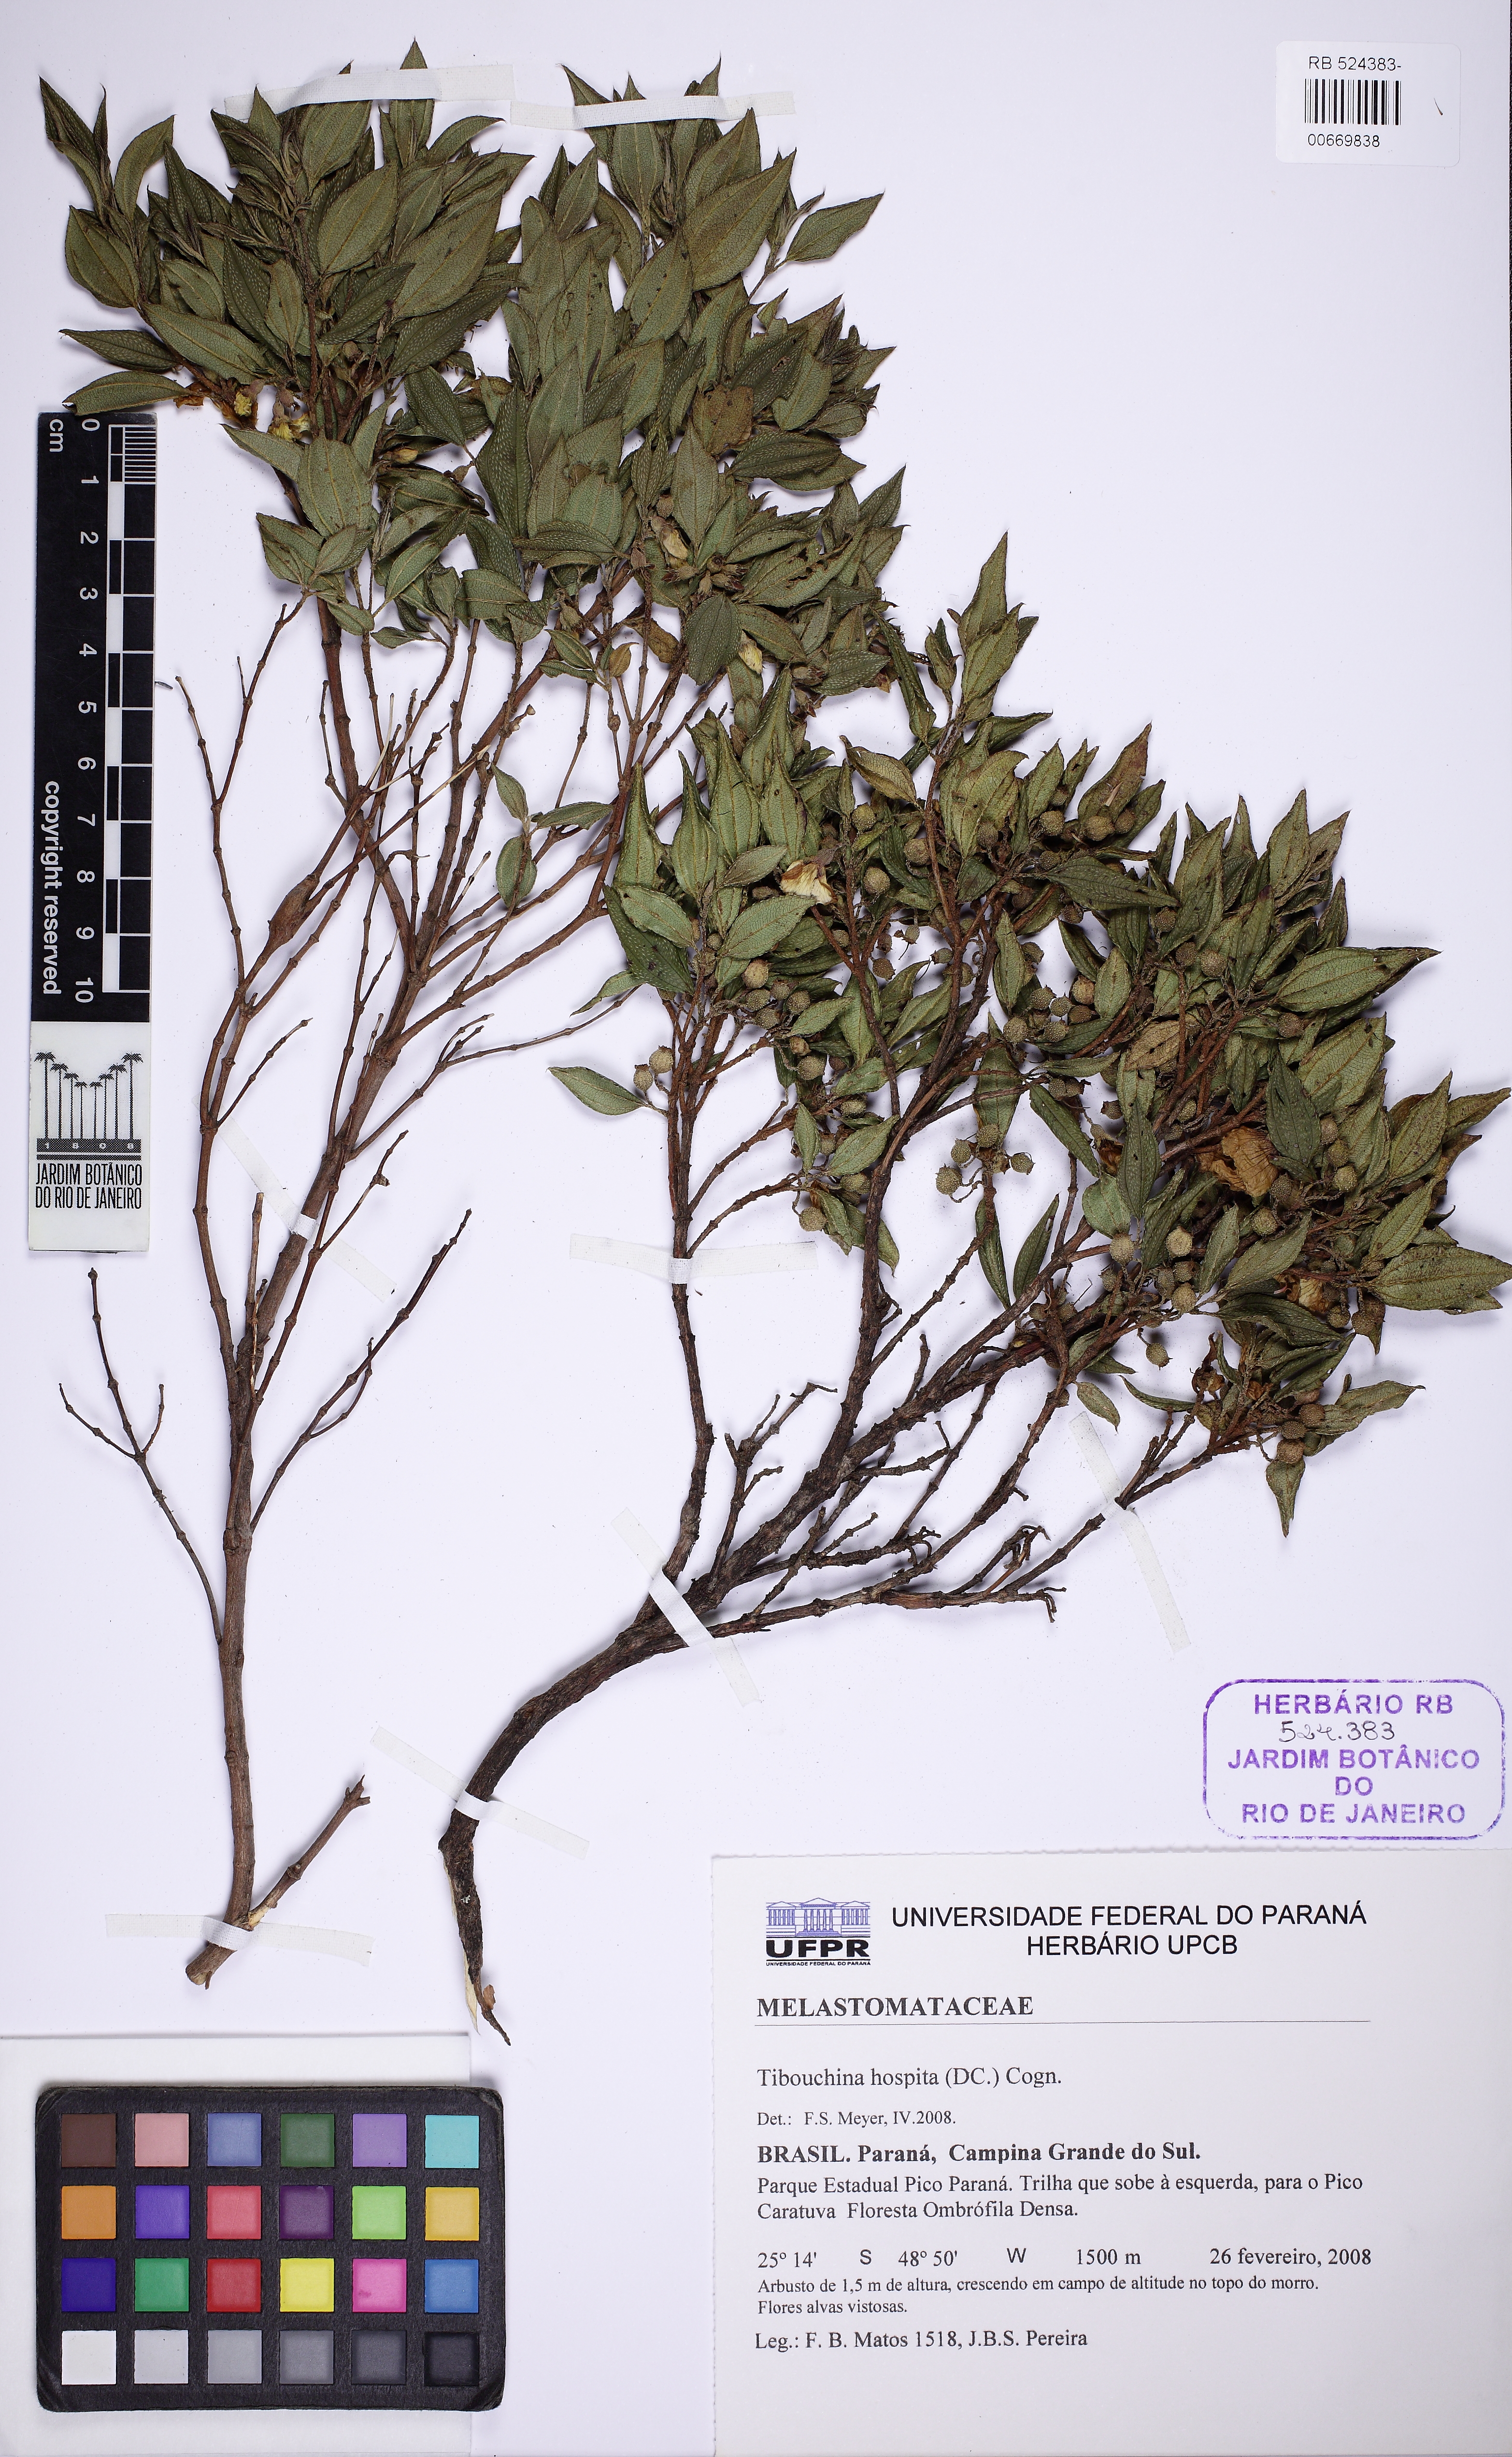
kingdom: Plantae
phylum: Tracheophyta
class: Magnoliopsida
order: Myrtales
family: Melastomataceae
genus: Pleroma
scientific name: Pleroma hospitum
